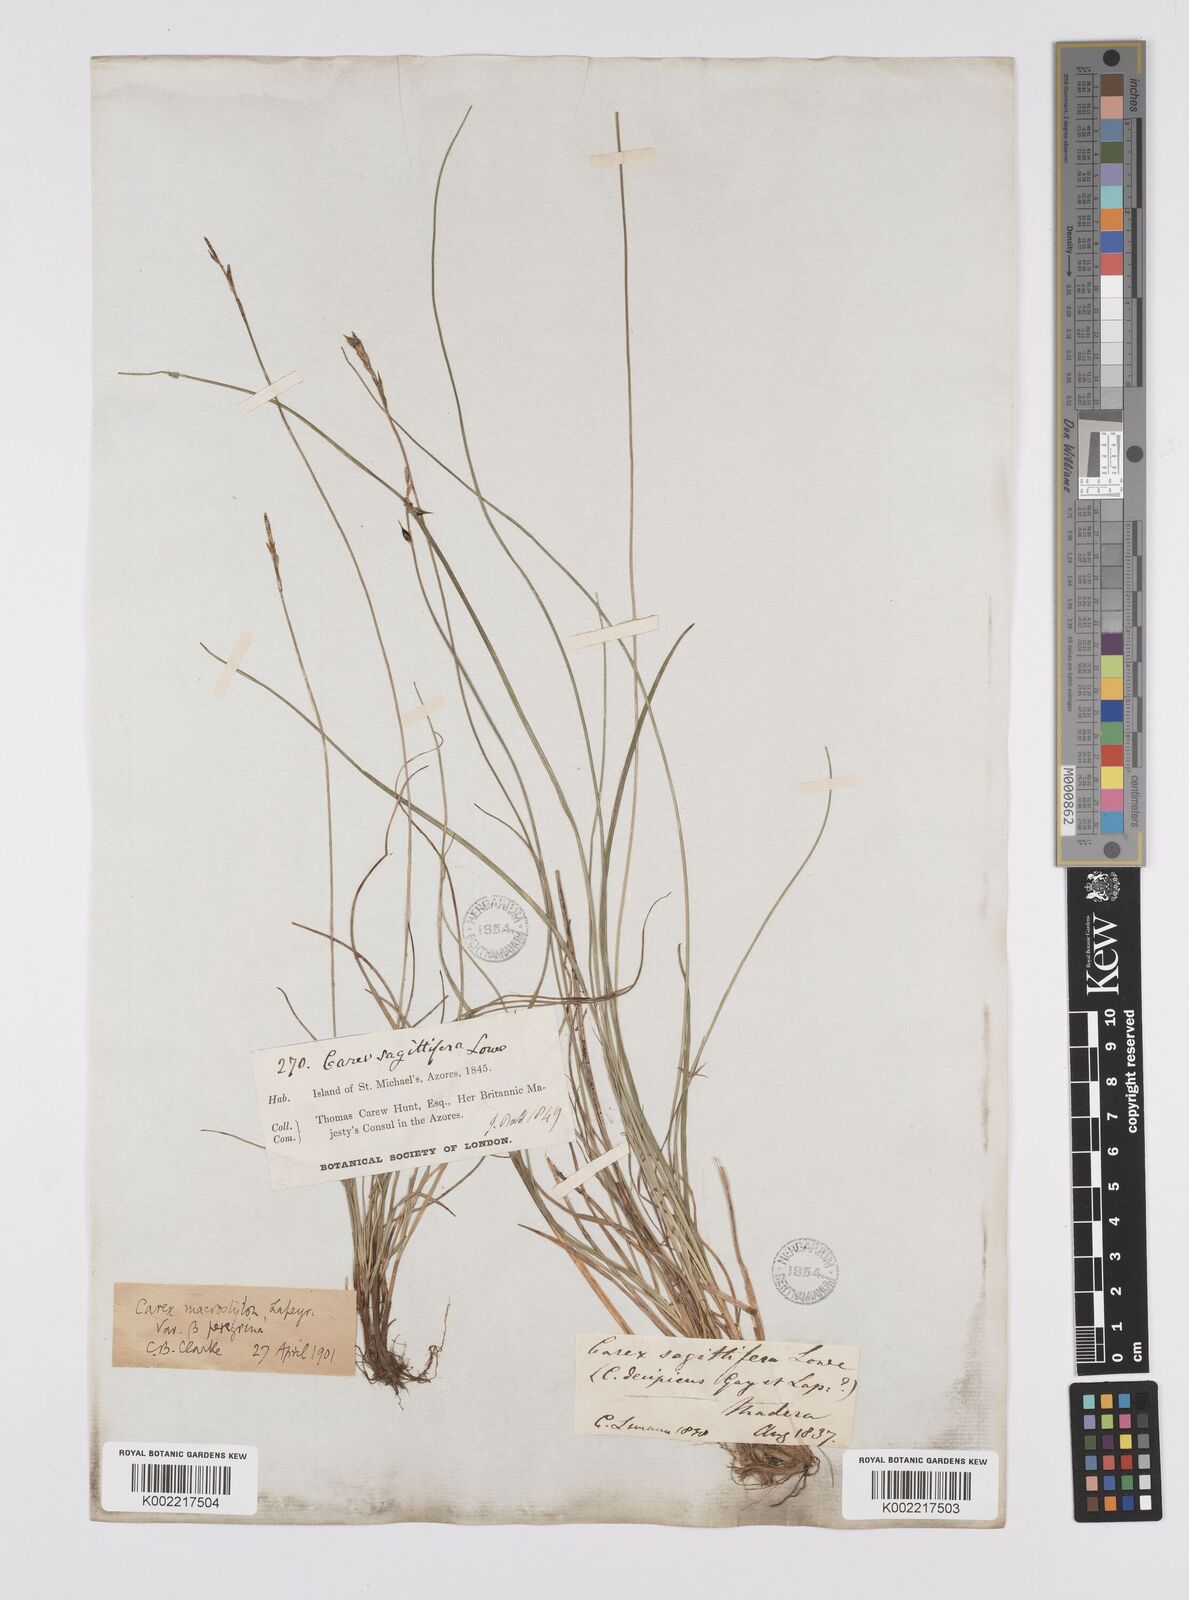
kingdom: Plantae
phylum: Tracheophyta
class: Liliopsida
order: Poales
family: Cyperaceae
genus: Carex
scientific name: Carex peregrina
